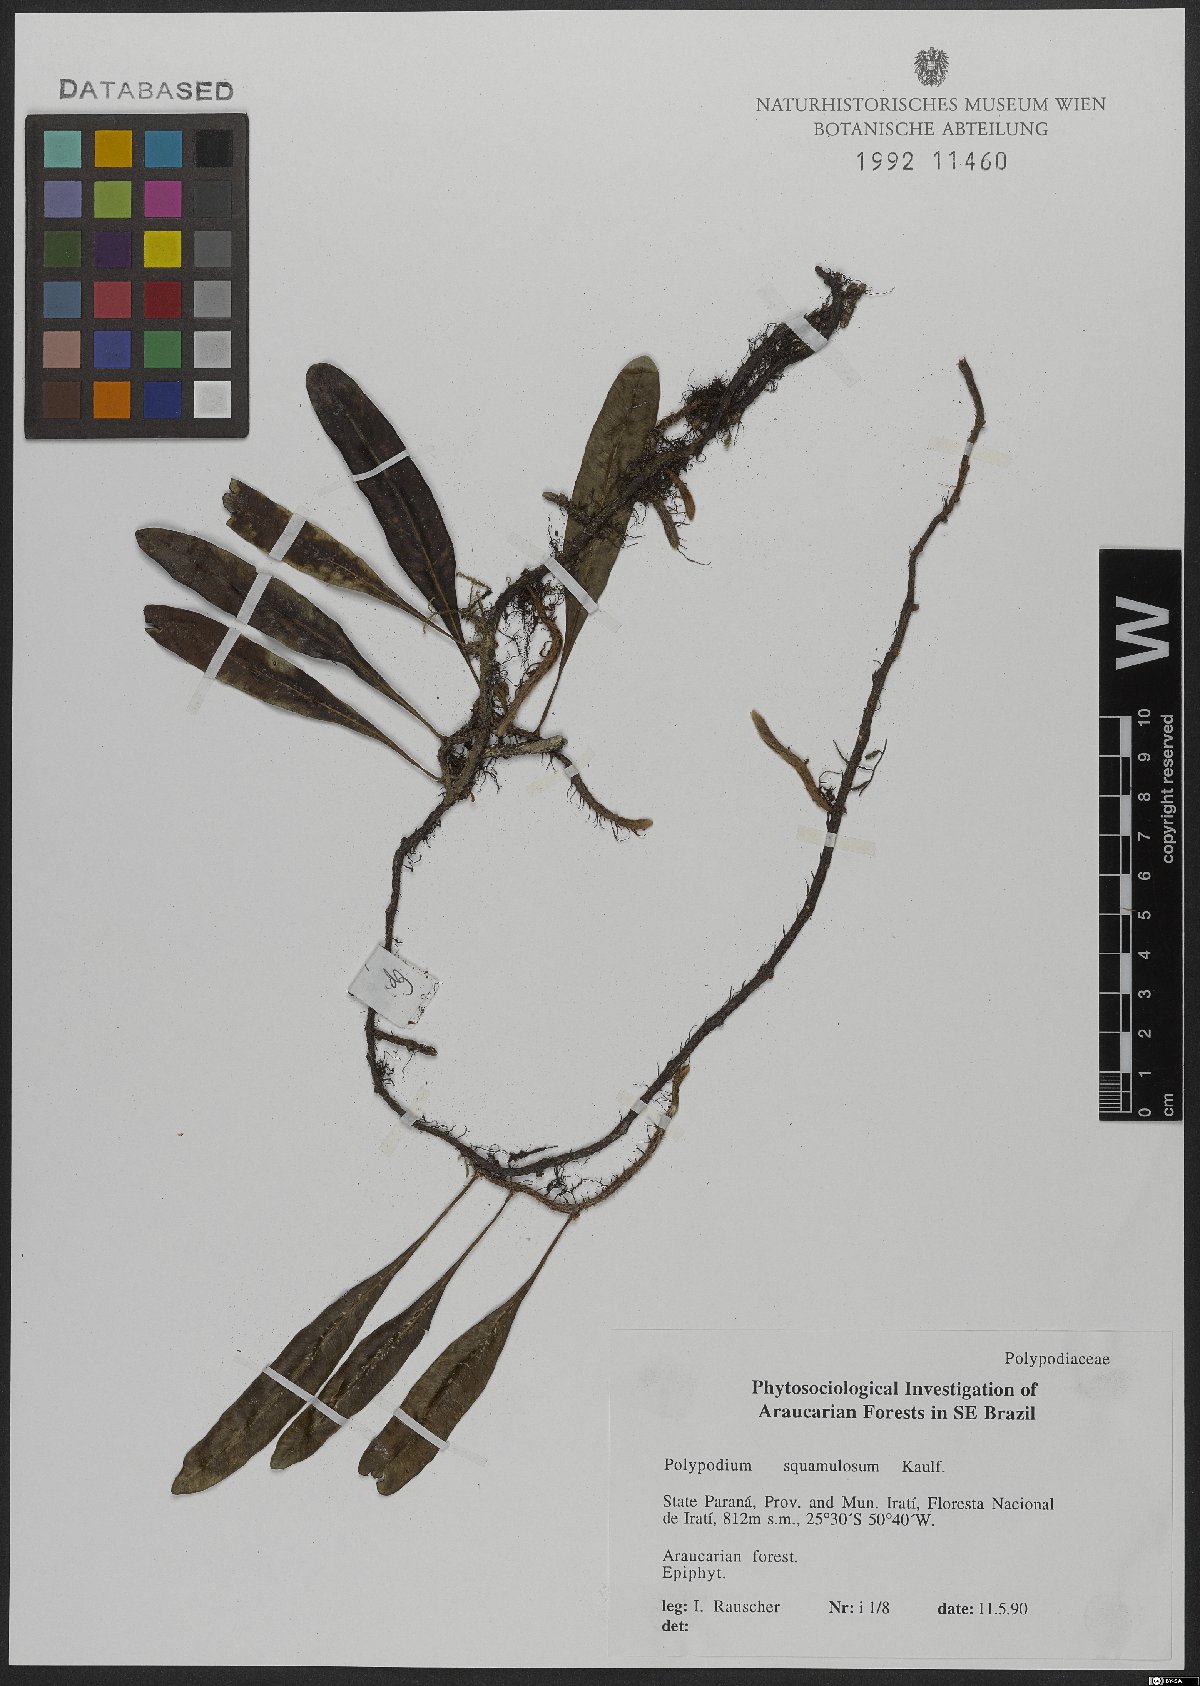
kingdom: Plantae
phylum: Tracheophyta
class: Polypodiopsida
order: Polypodiales
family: Polypodiaceae
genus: Microgramma
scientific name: Microgramma squamulosa
